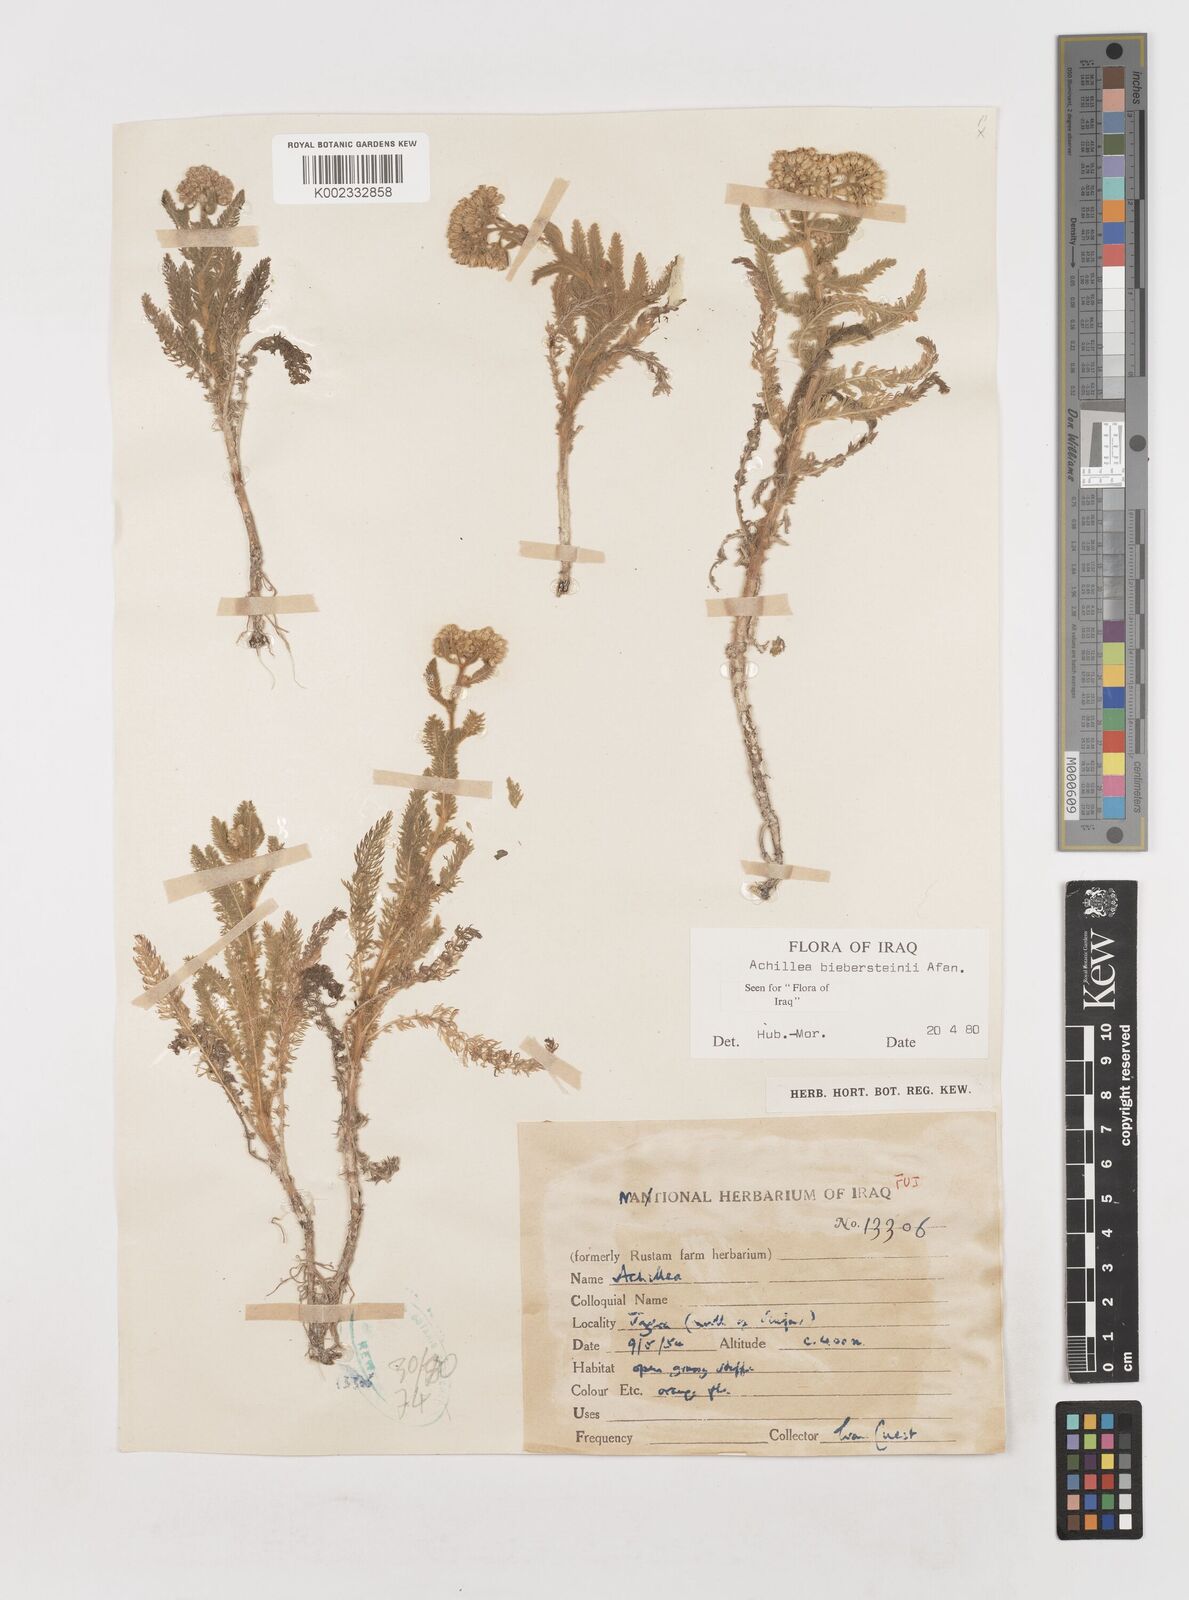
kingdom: Plantae
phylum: Tracheophyta
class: Magnoliopsida
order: Asterales
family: Asteraceae
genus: Achillea
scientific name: Achillea arabica
